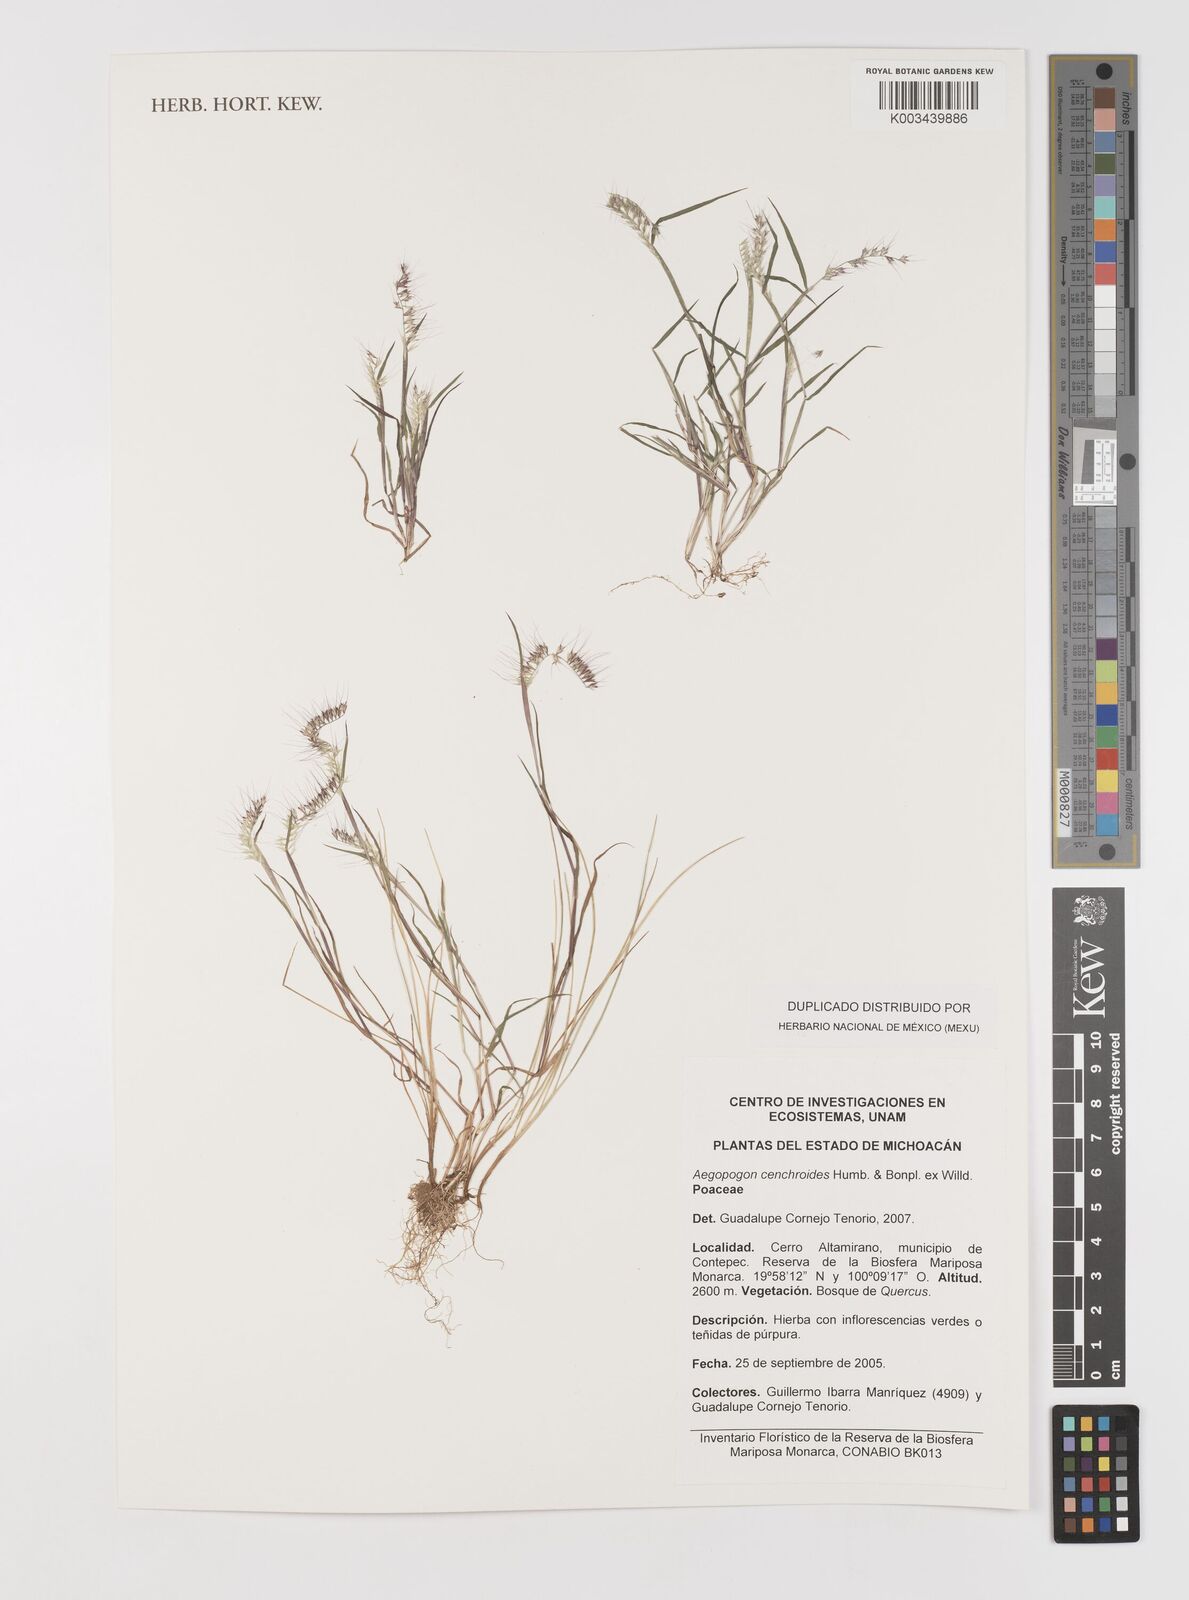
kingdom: Plantae
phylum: Tracheophyta
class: Liliopsida
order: Poales
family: Poaceae
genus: Muhlenbergia
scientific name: Muhlenbergia cenchroides
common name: Relaxgrass
